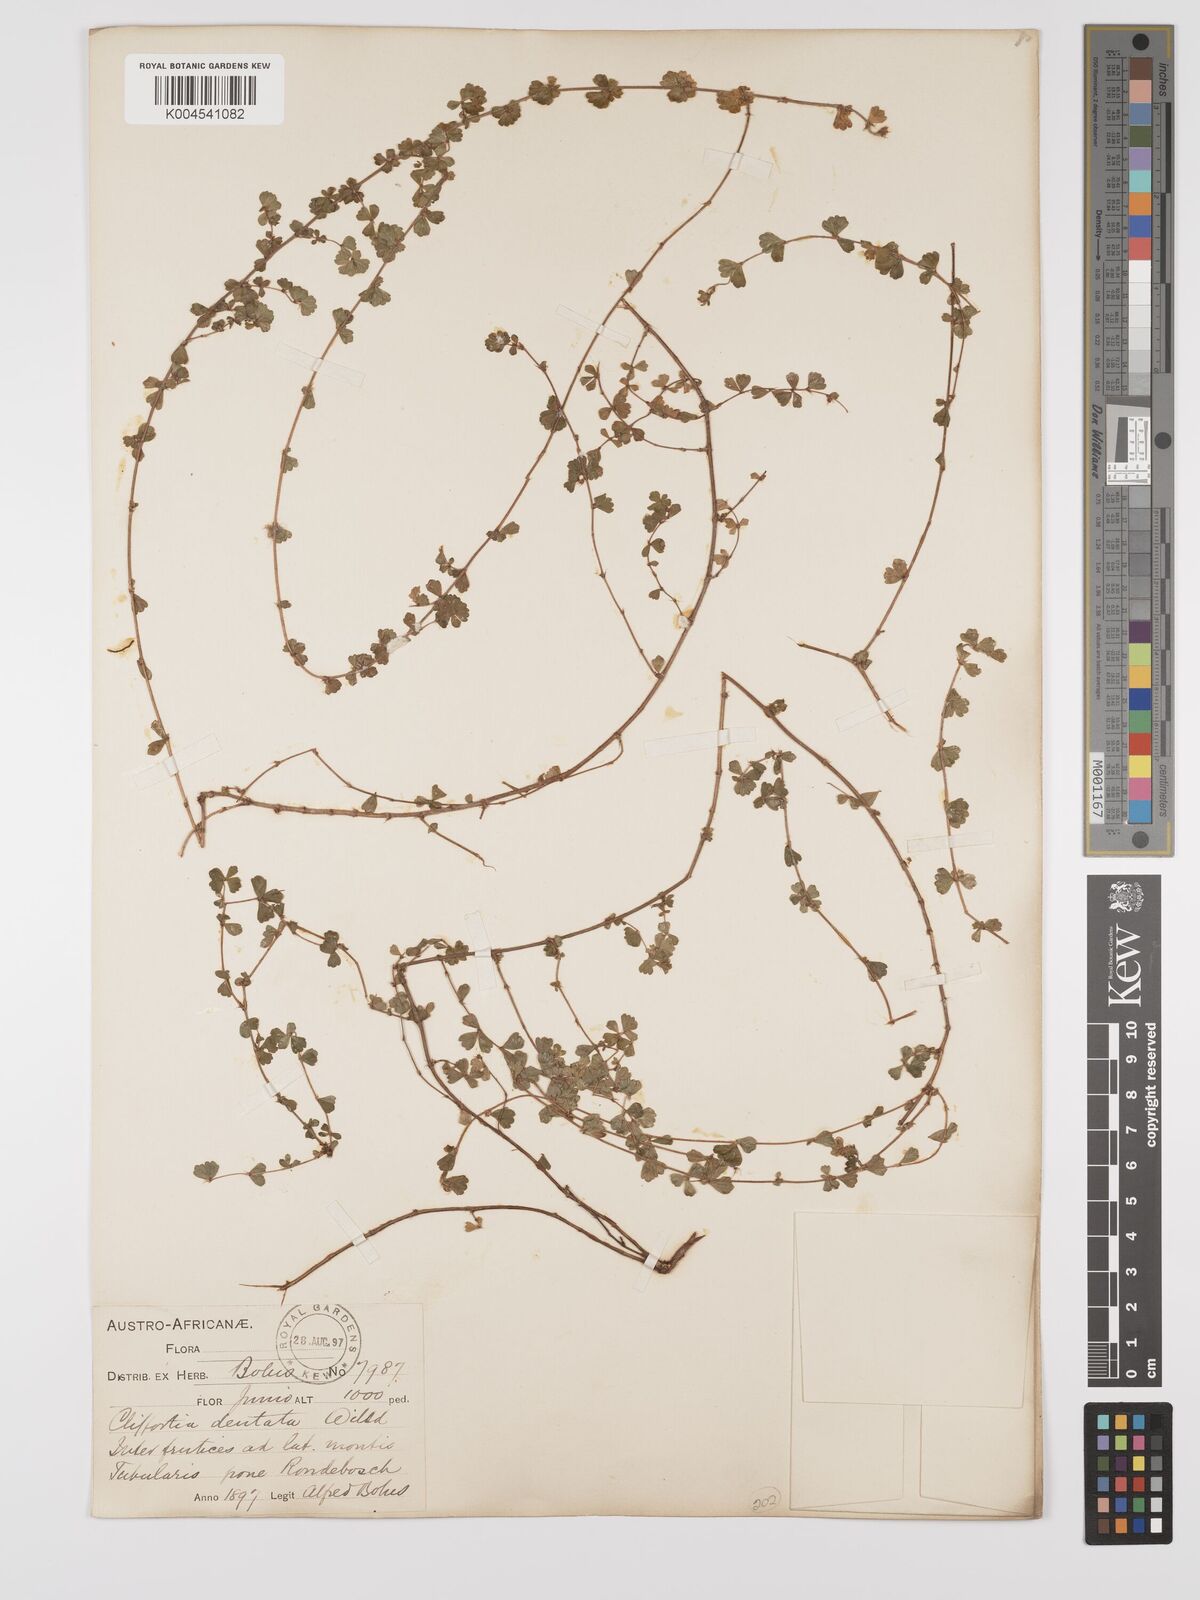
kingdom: Plantae
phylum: Tracheophyta
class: Magnoliopsida
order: Rosales
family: Rosaceae
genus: Cliffortia
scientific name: Cliffortia
